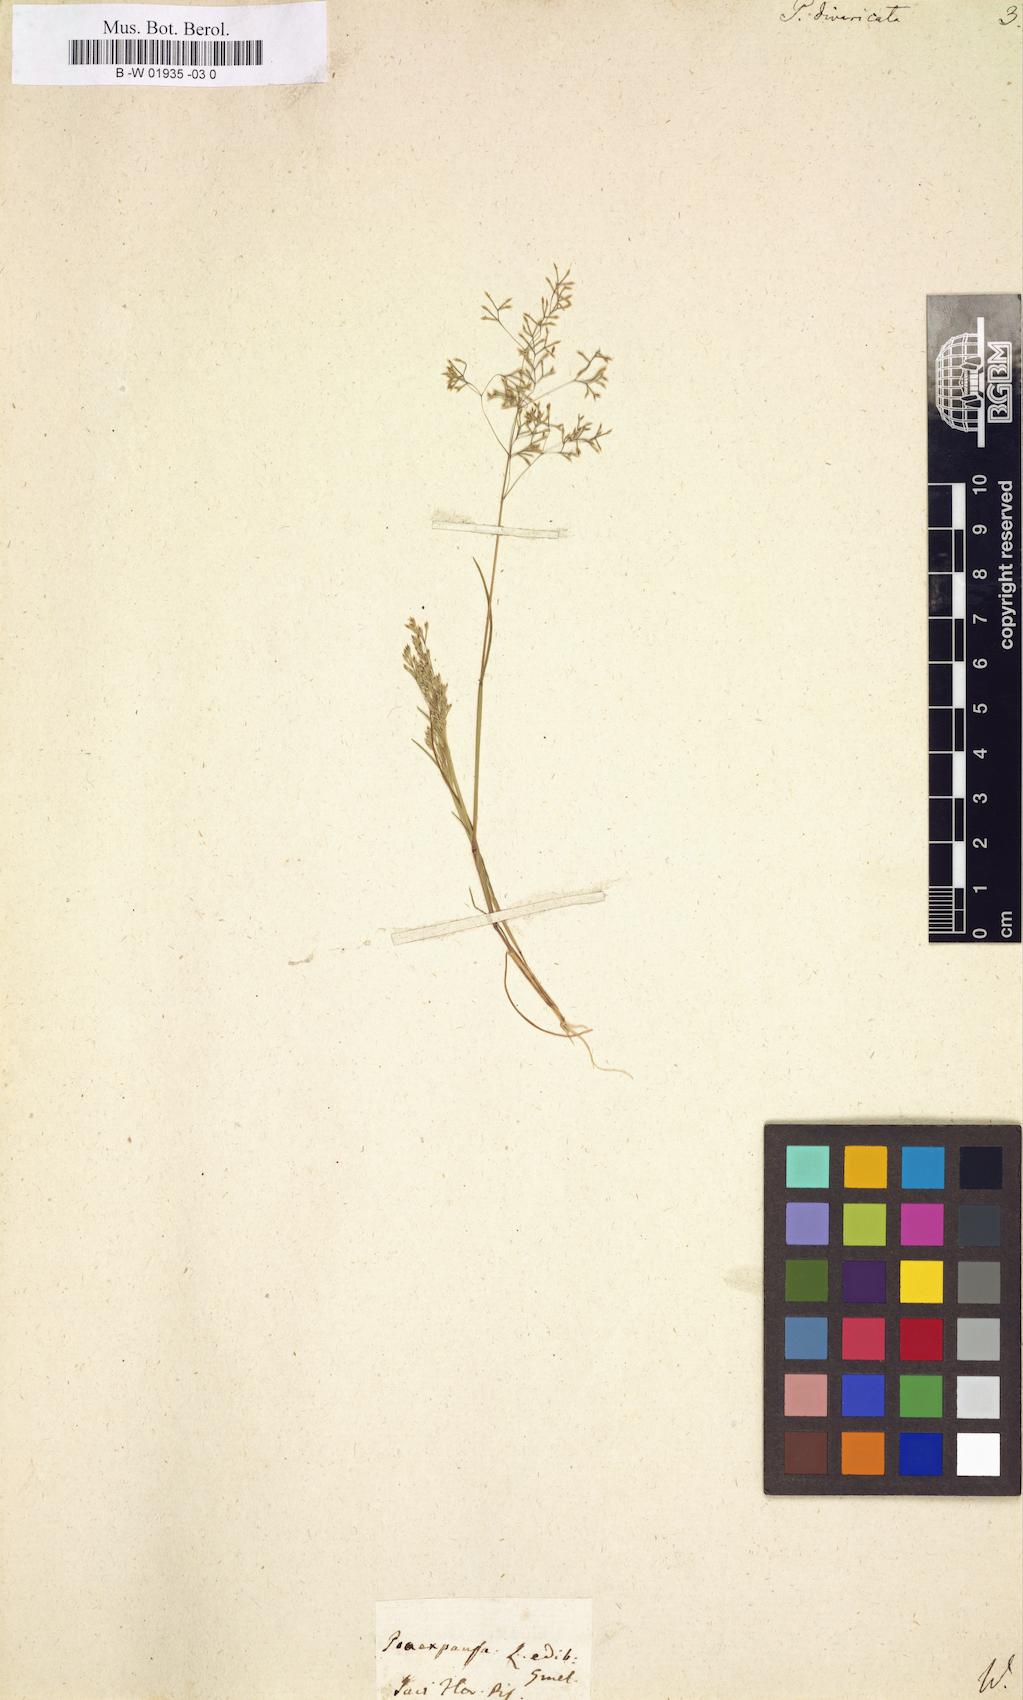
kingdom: Plantae
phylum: Tracheophyta
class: Liliopsida
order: Poales
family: Poaceae
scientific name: Poaceae
